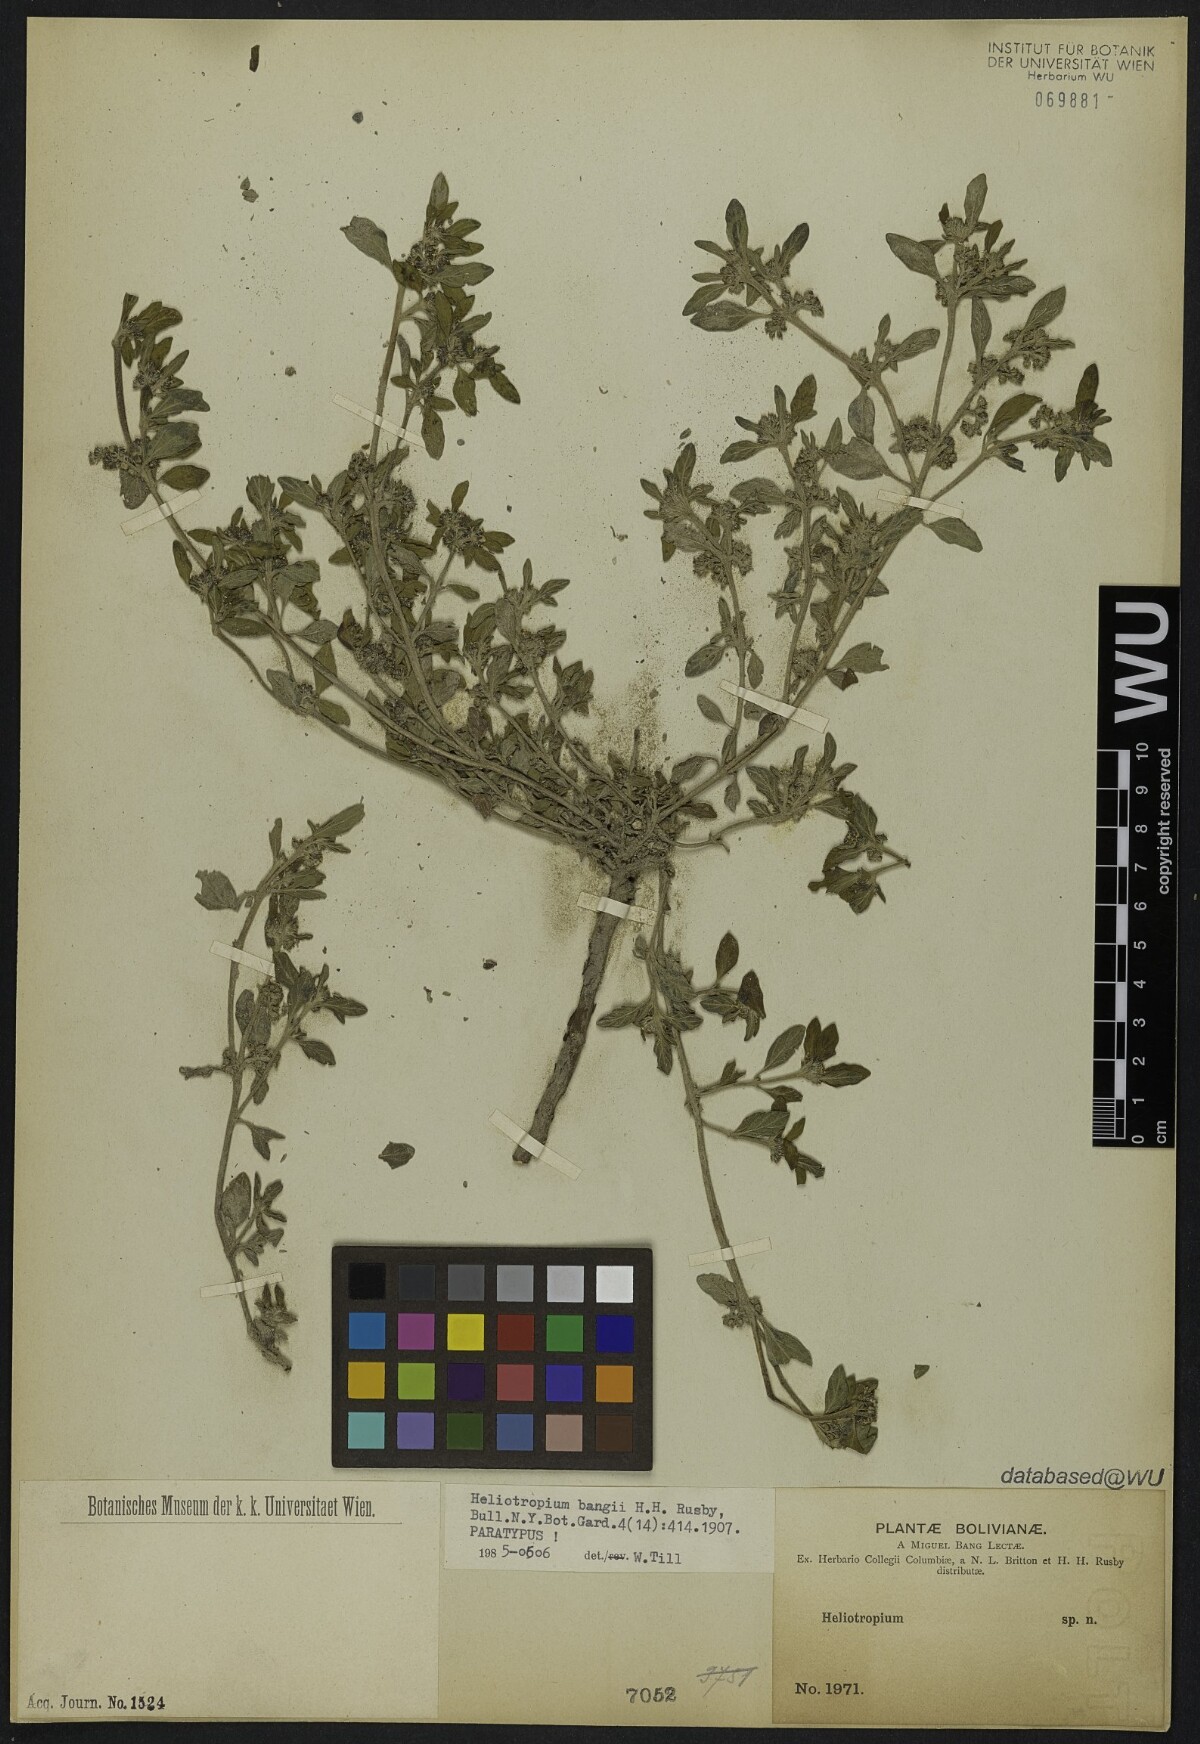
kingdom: Plantae
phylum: Tracheophyta
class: Magnoliopsida
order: Boraginales
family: Heliotropiaceae
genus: Heliotropium
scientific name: Heliotropium microstachyum
